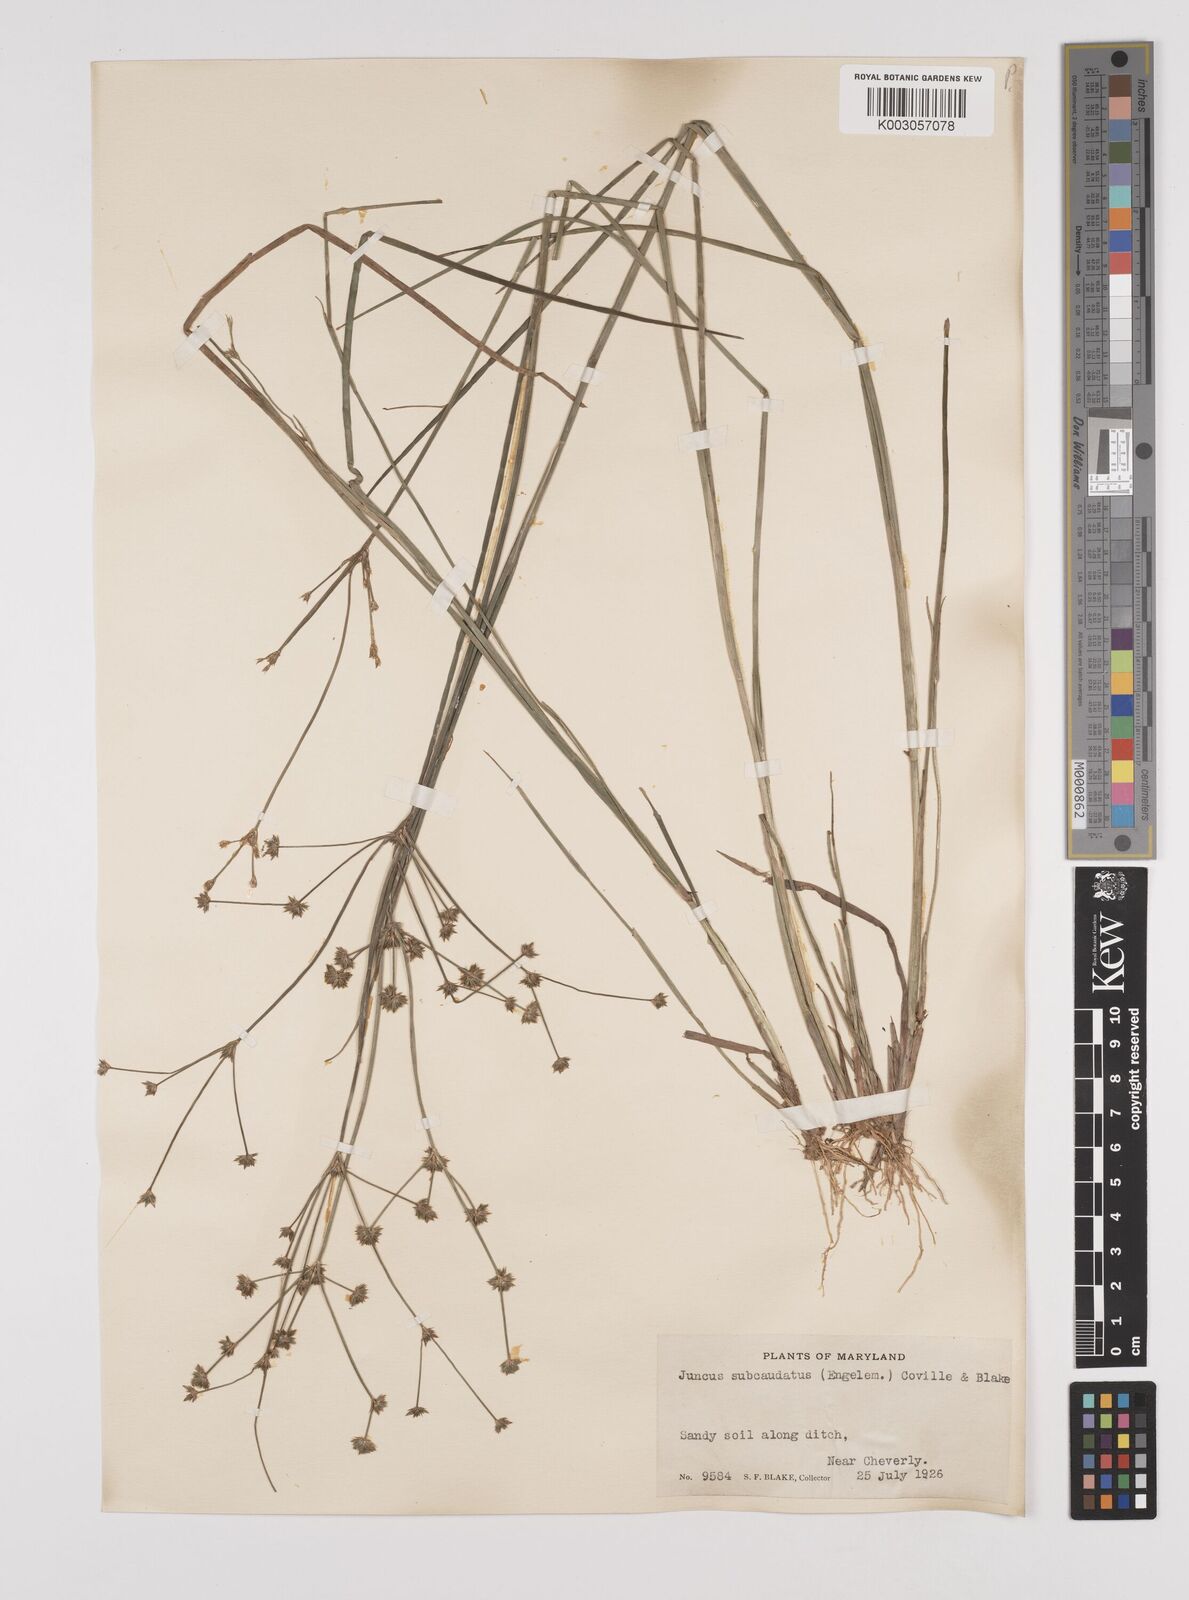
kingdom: Plantae
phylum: Tracheophyta
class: Liliopsida
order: Poales
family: Juncaceae
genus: Juncus
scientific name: Juncus canadensis
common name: Canada rush
